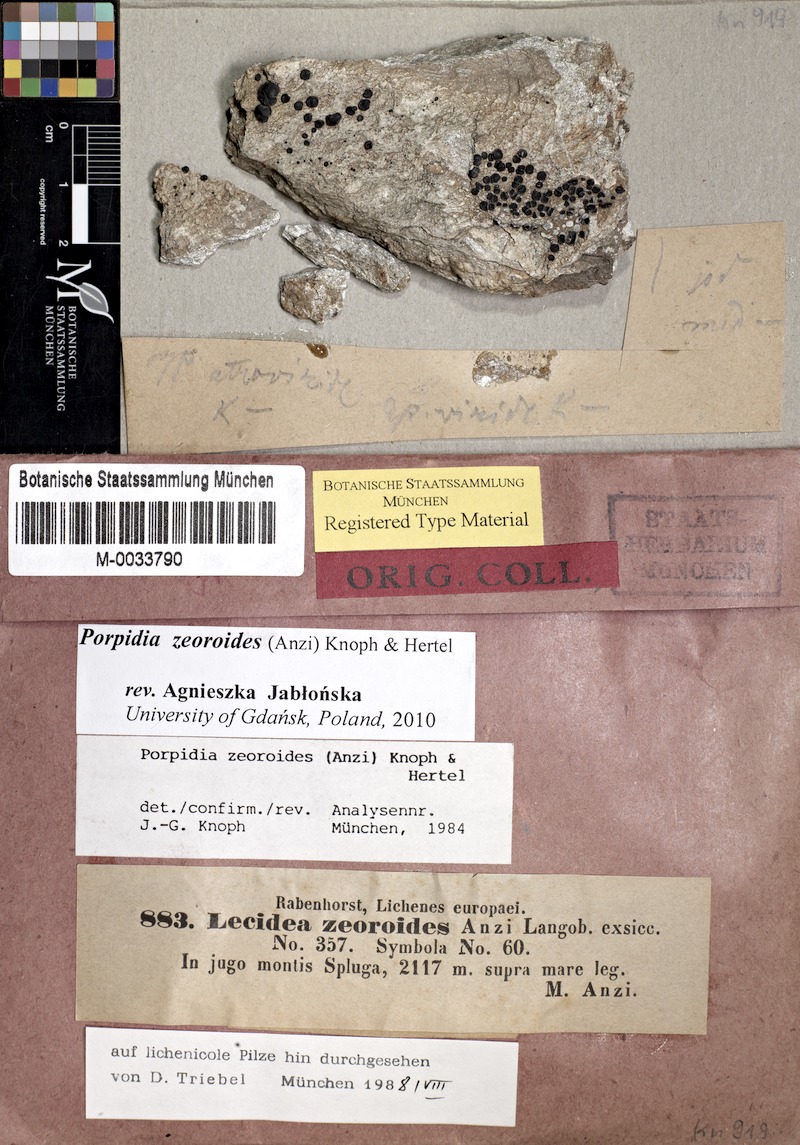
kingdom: Fungi
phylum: Ascomycota
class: Lecanoromycetes
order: Lecideales
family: Lecideaceae
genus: Porpidia
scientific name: Porpidia zeoroides
